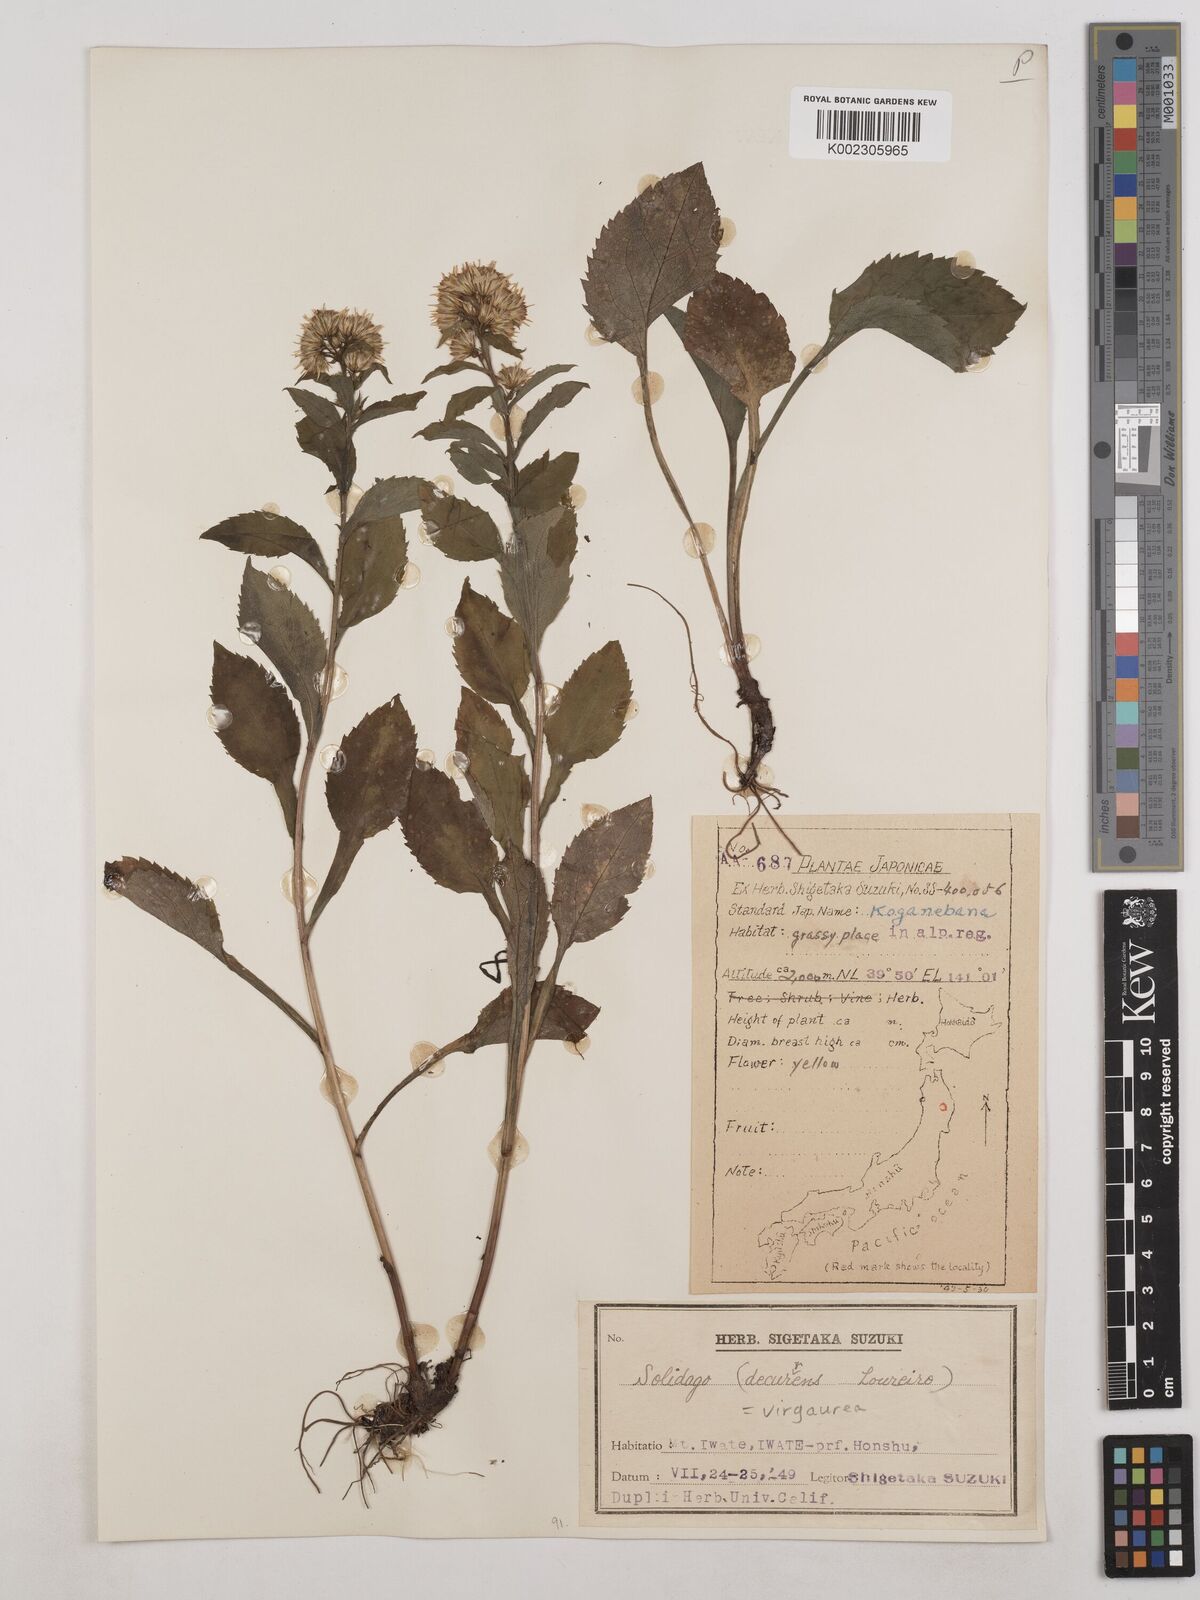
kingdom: Plantae
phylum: Tracheophyta
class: Magnoliopsida
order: Asterales
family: Asteraceae
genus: Solidago
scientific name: Solidago virgaurea
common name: Goldenrod
